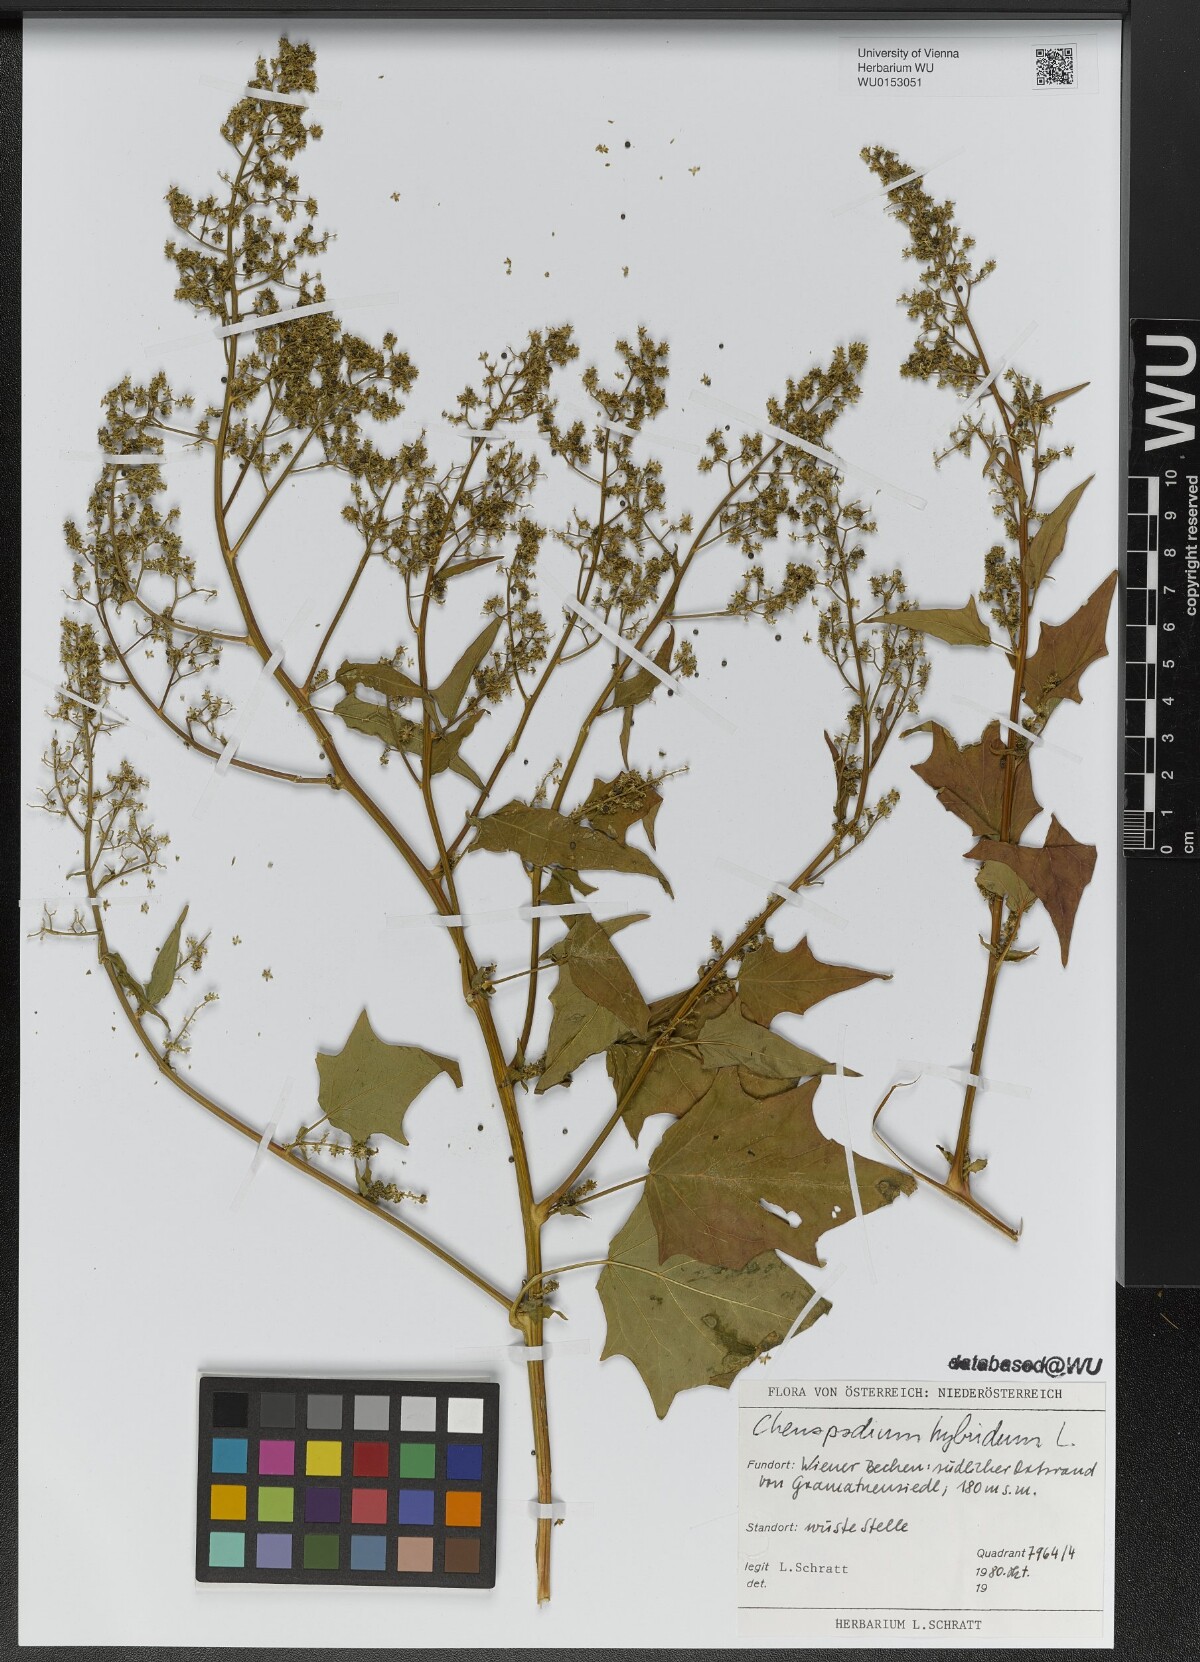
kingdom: Plantae
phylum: Tracheophyta
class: Magnoliopsida
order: Caryophyllales
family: Amaranthaceae
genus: Chenopodiastrum
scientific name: Chenopodiastrum hybridum
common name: Mapleleaf goosefoot
